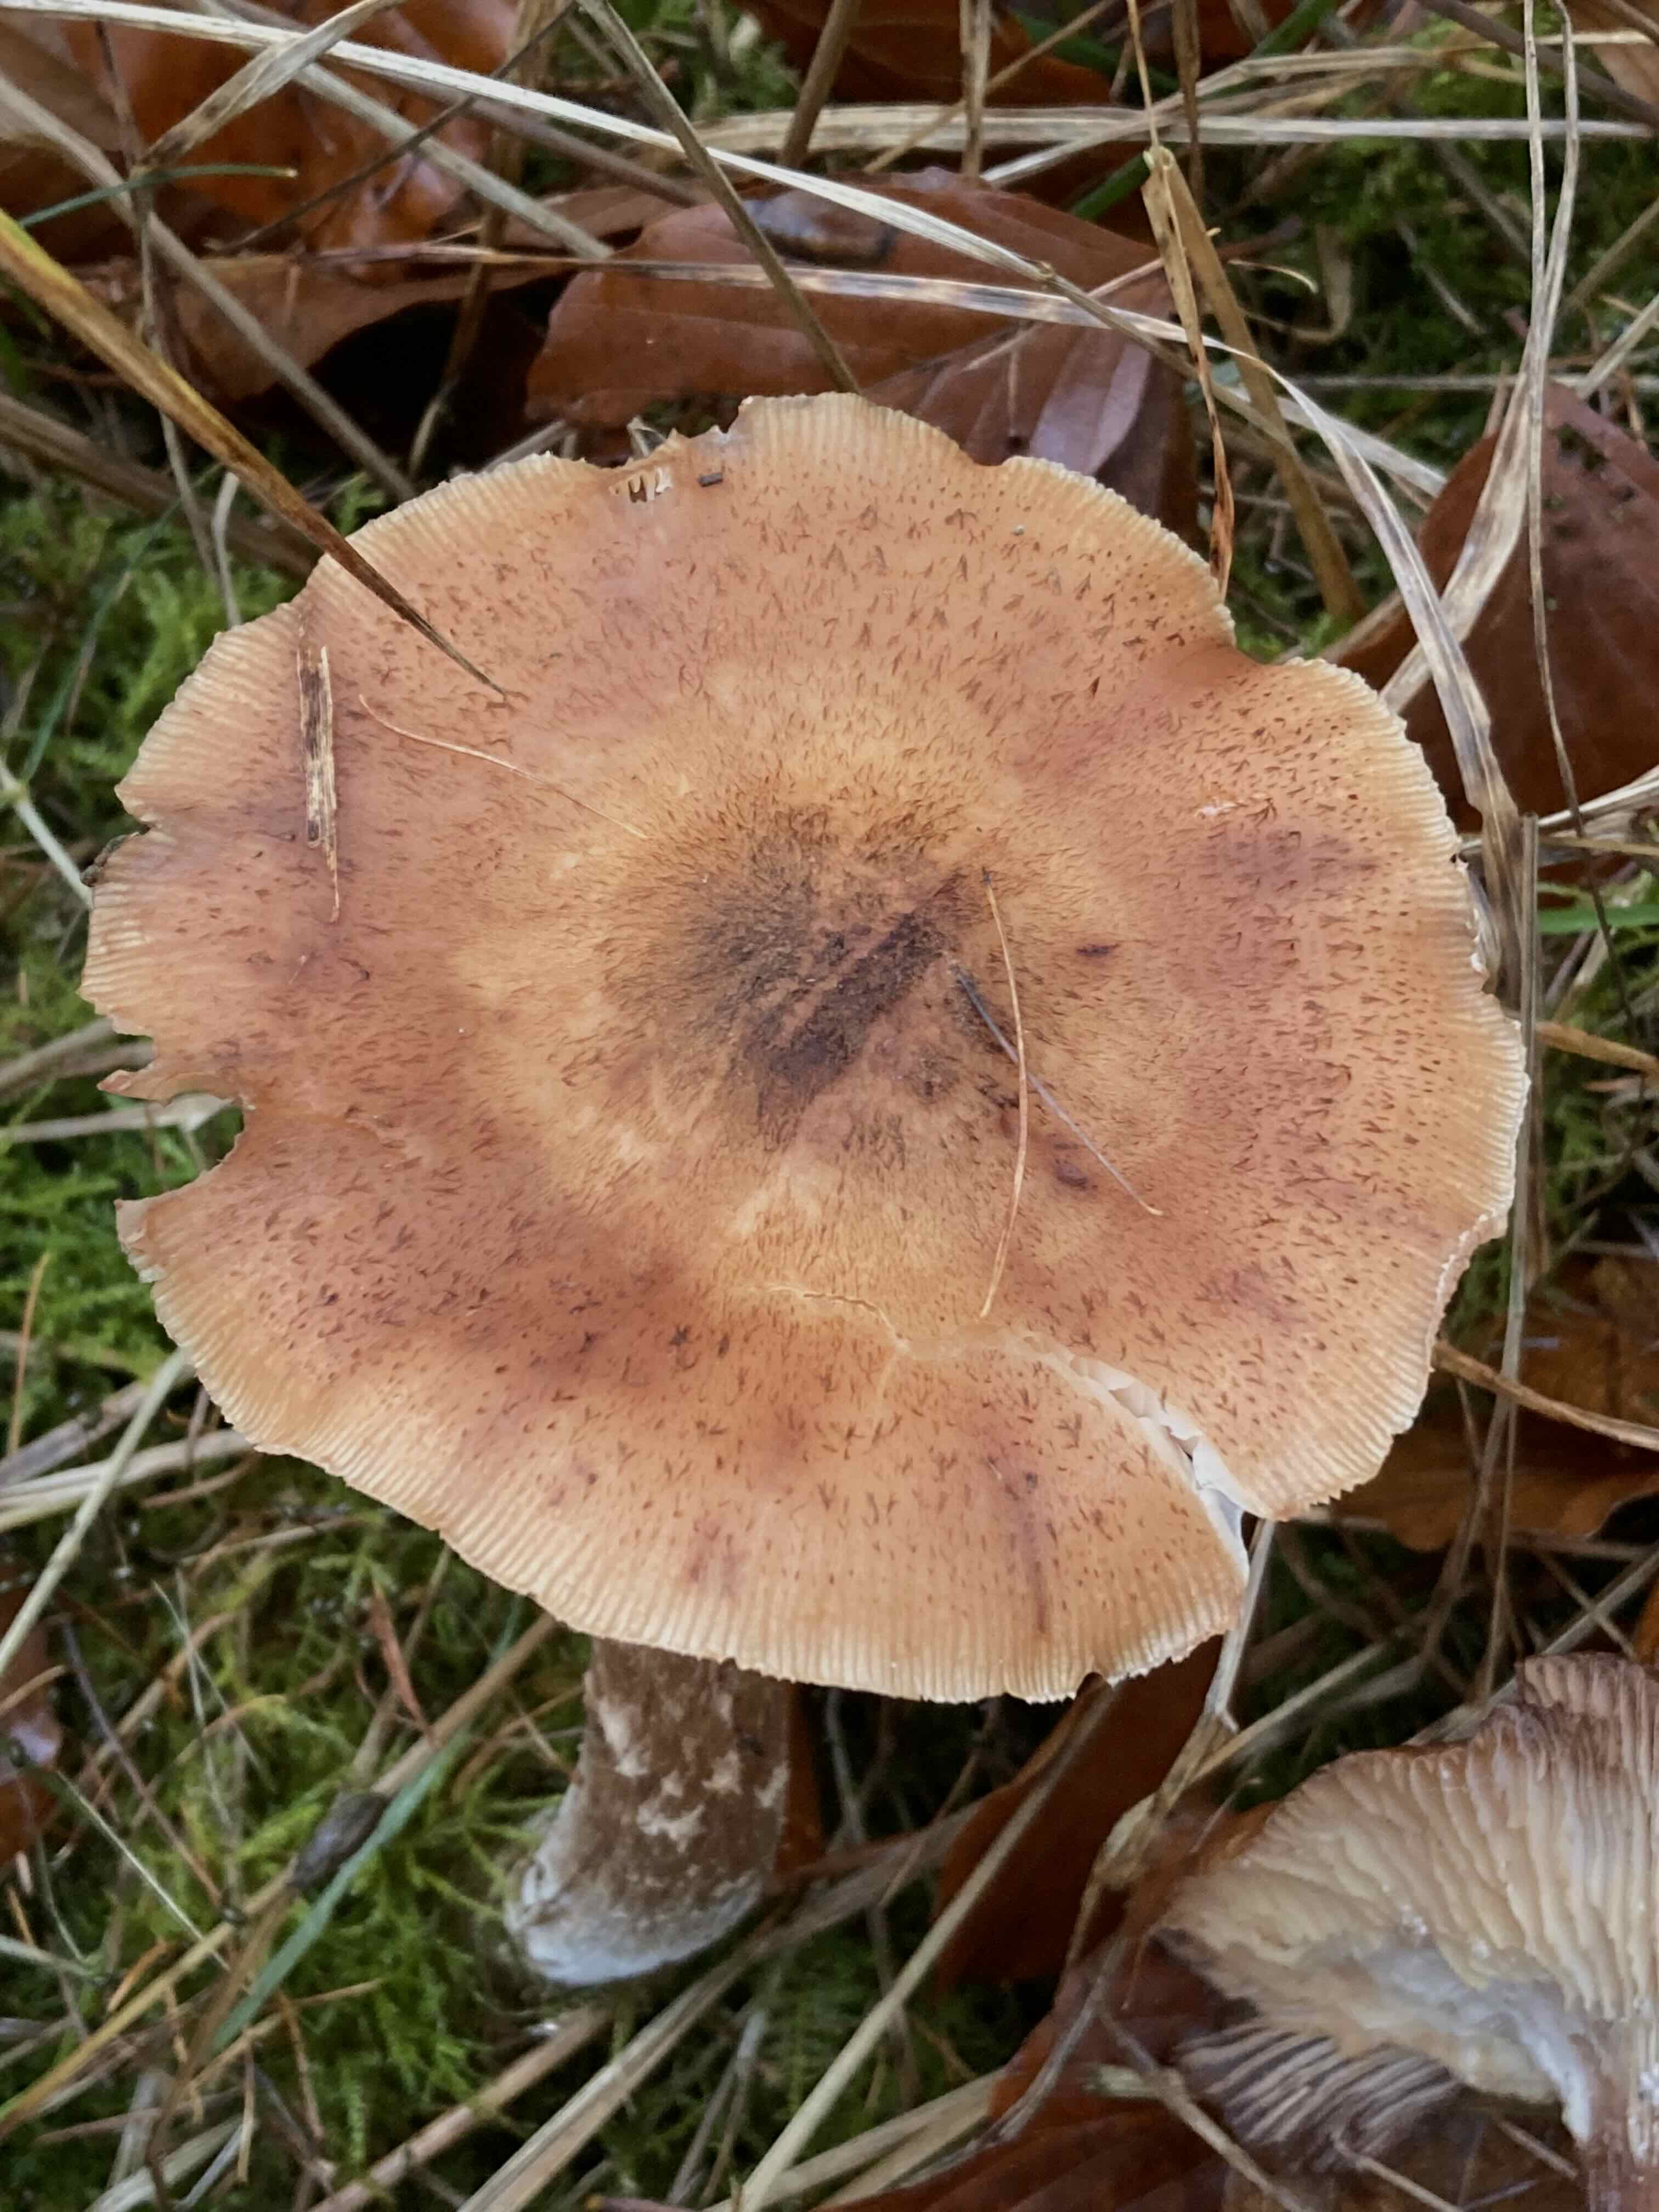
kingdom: Fungi
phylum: Basidiomycota
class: Agaricomycetes
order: Agaricales
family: Physalacriaceae
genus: Armillaria
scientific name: Armillaria ostoyae
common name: mørk honningsvamp
